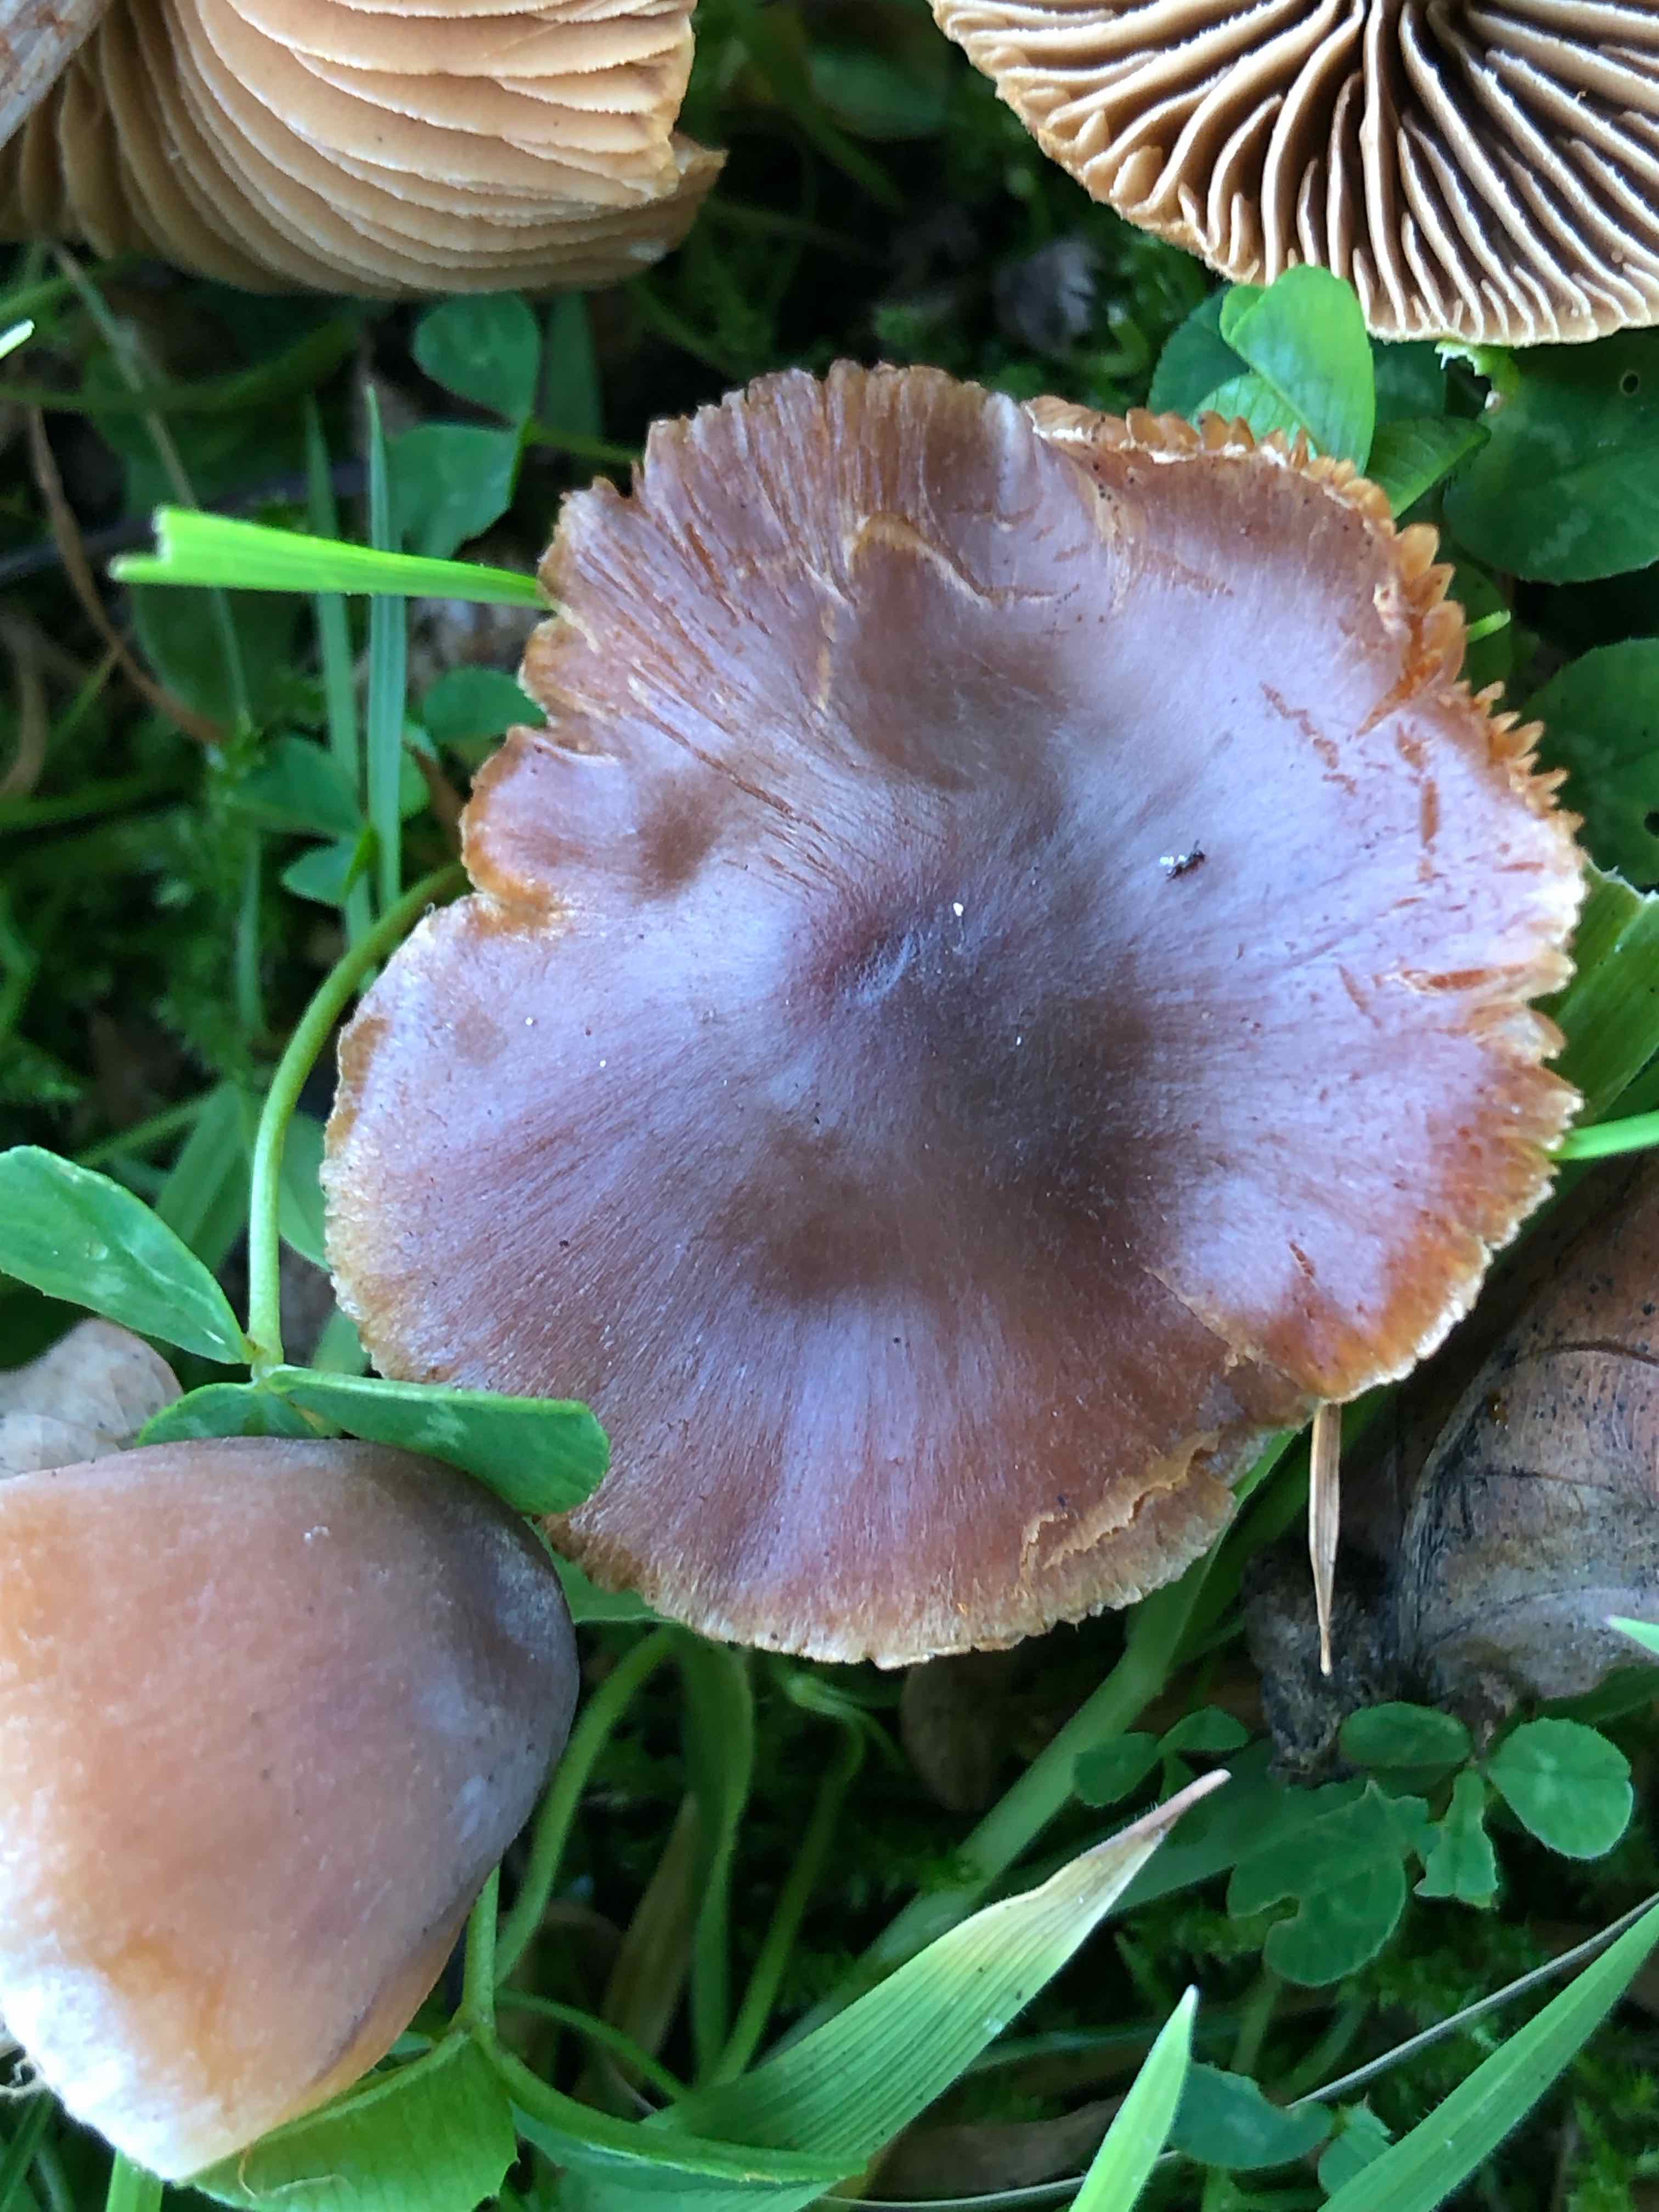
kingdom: Fungi
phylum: Basidiomycota
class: Agaricomycetes
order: Agaricales
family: Cortinariaceae
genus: Cortinarius
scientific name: Cortinarius
